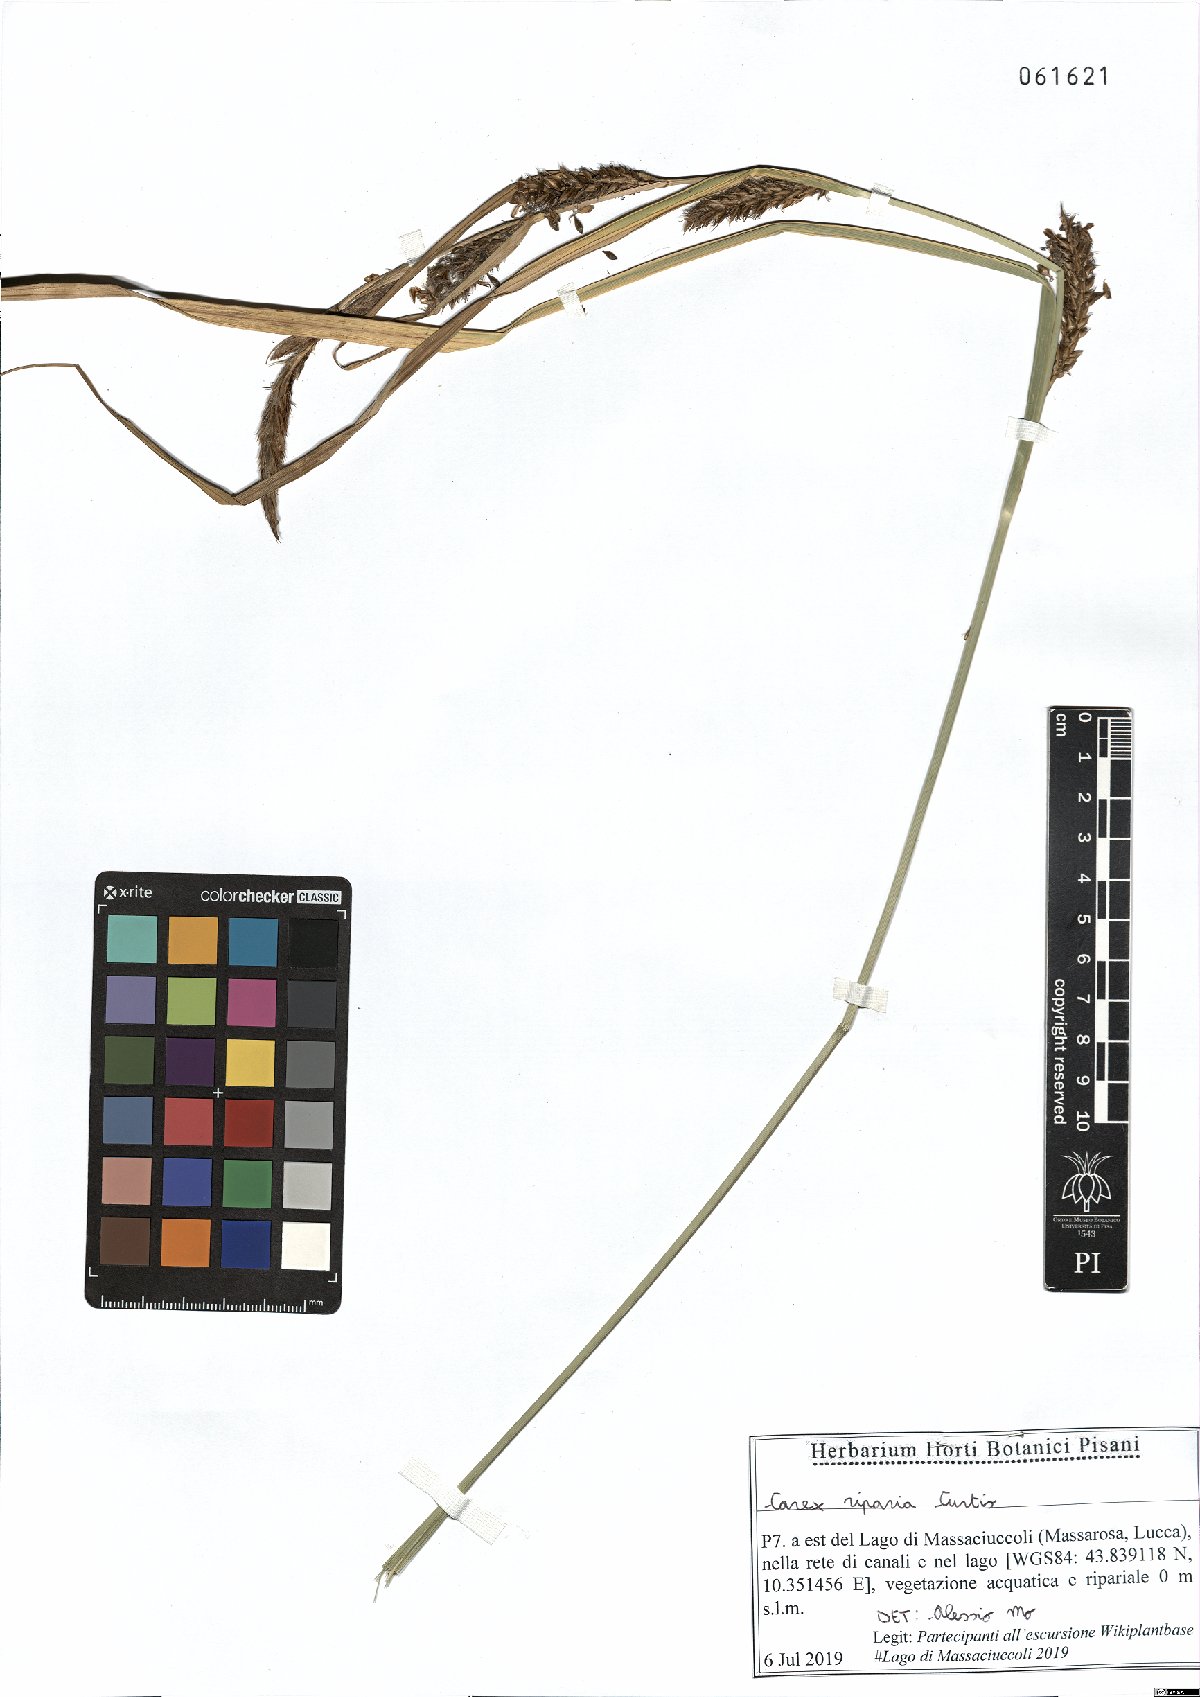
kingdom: Plantae
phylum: Tracheophyta
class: Liliopsida
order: Poales
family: Cyperaceae
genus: Carex
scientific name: Carex riparia
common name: Greater pond-sedge
